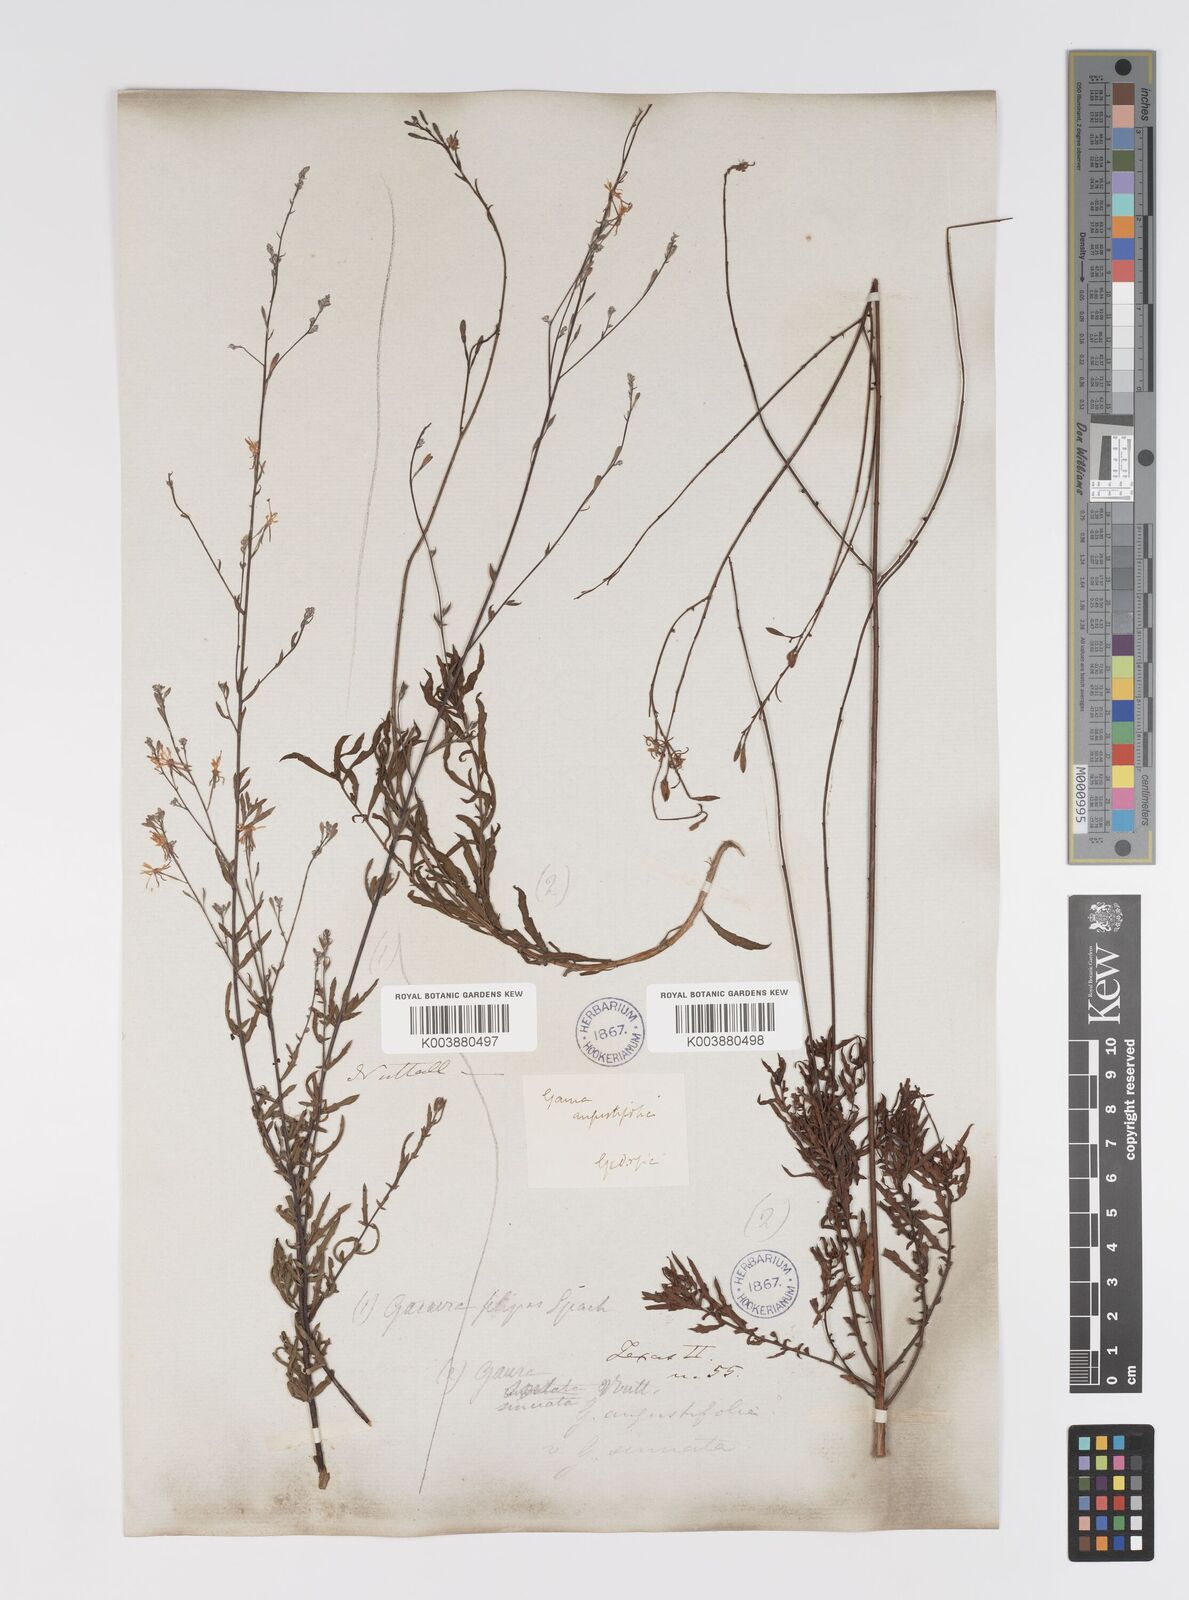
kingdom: Plantae
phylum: Tracheophyta
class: Magnoliopsida
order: Myrtales
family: Onagraceae
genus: Oenothera
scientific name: Oenothera sinuosa
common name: Wavyleaf beeblossom
